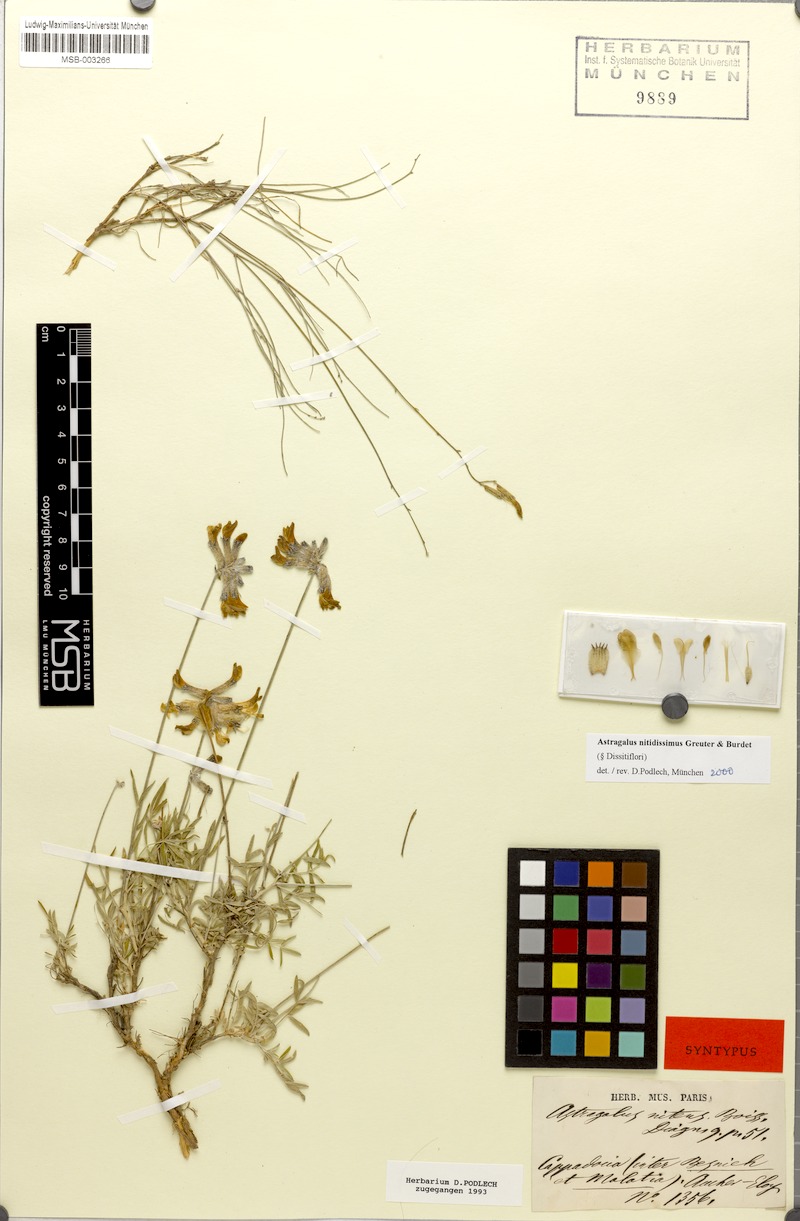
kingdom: Plantae
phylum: Tracheophyta
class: Magnoliopsida
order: Fabales
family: Fabaceae
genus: Astragalus
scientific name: Astragalus nitidissimus
